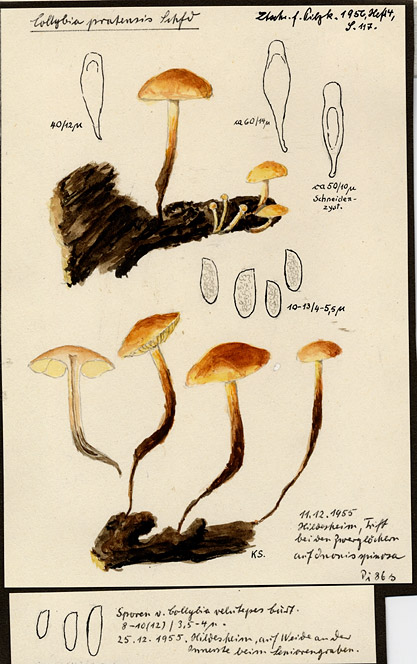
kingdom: Fungi
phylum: Basidiomycota
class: Agaricomycetes
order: Agaricales
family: Physalacriaceae
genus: Flammulina
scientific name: Flammulina ononidis
